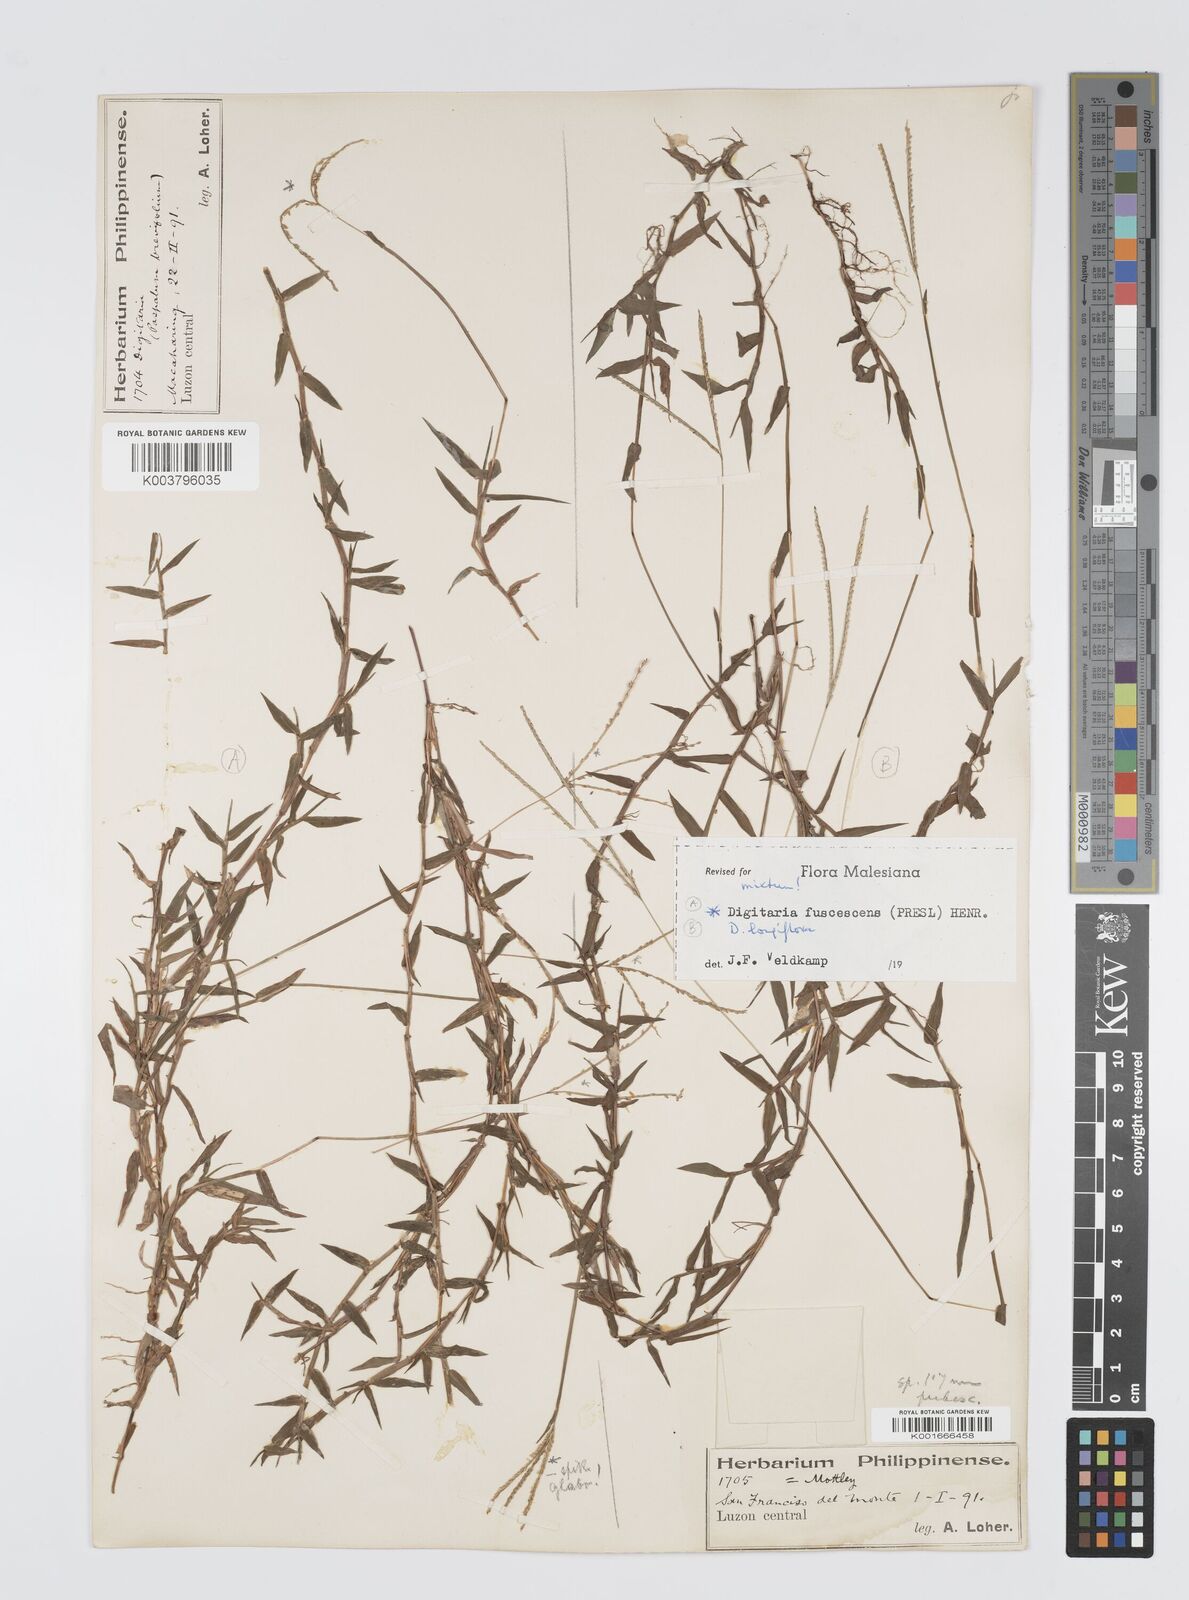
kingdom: Plantae
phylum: Tracheophyta
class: Liliopsida
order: Poales
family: Poaceae
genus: Digitaria
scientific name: Digitaria ciliaris
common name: Tropical finger-grass
